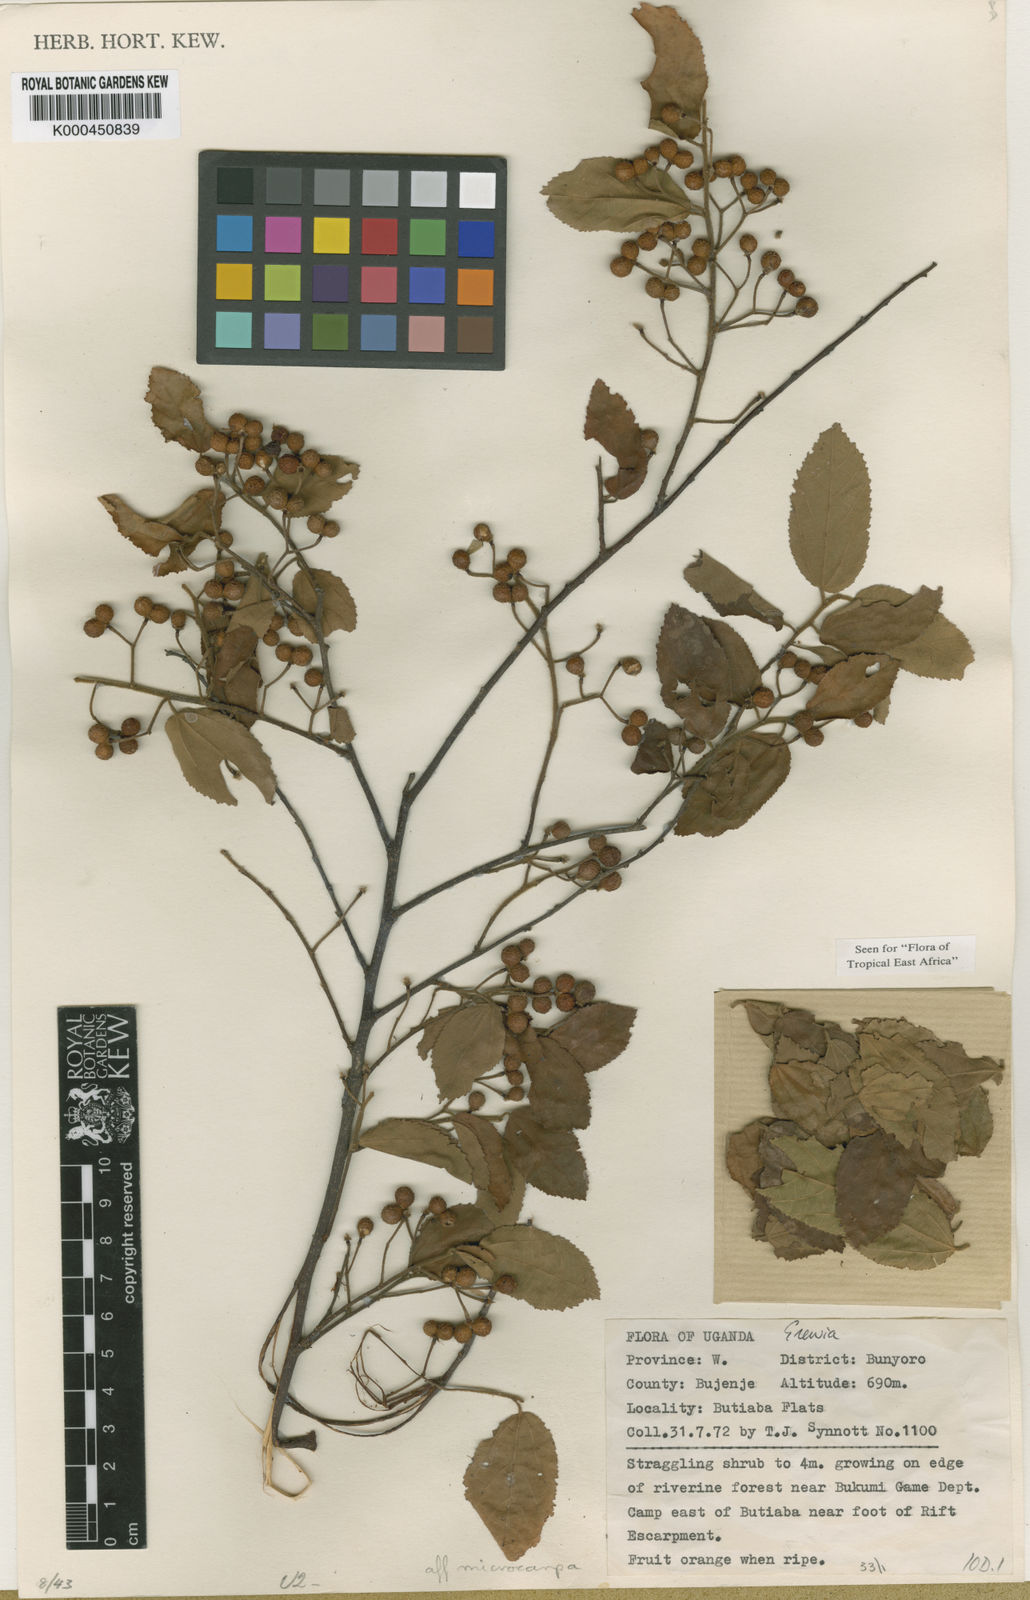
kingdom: Plantae
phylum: Tracheophyta
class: Magnoliopsida
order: Malvales
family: Malvaceae
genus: Grewia
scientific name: Grewia
